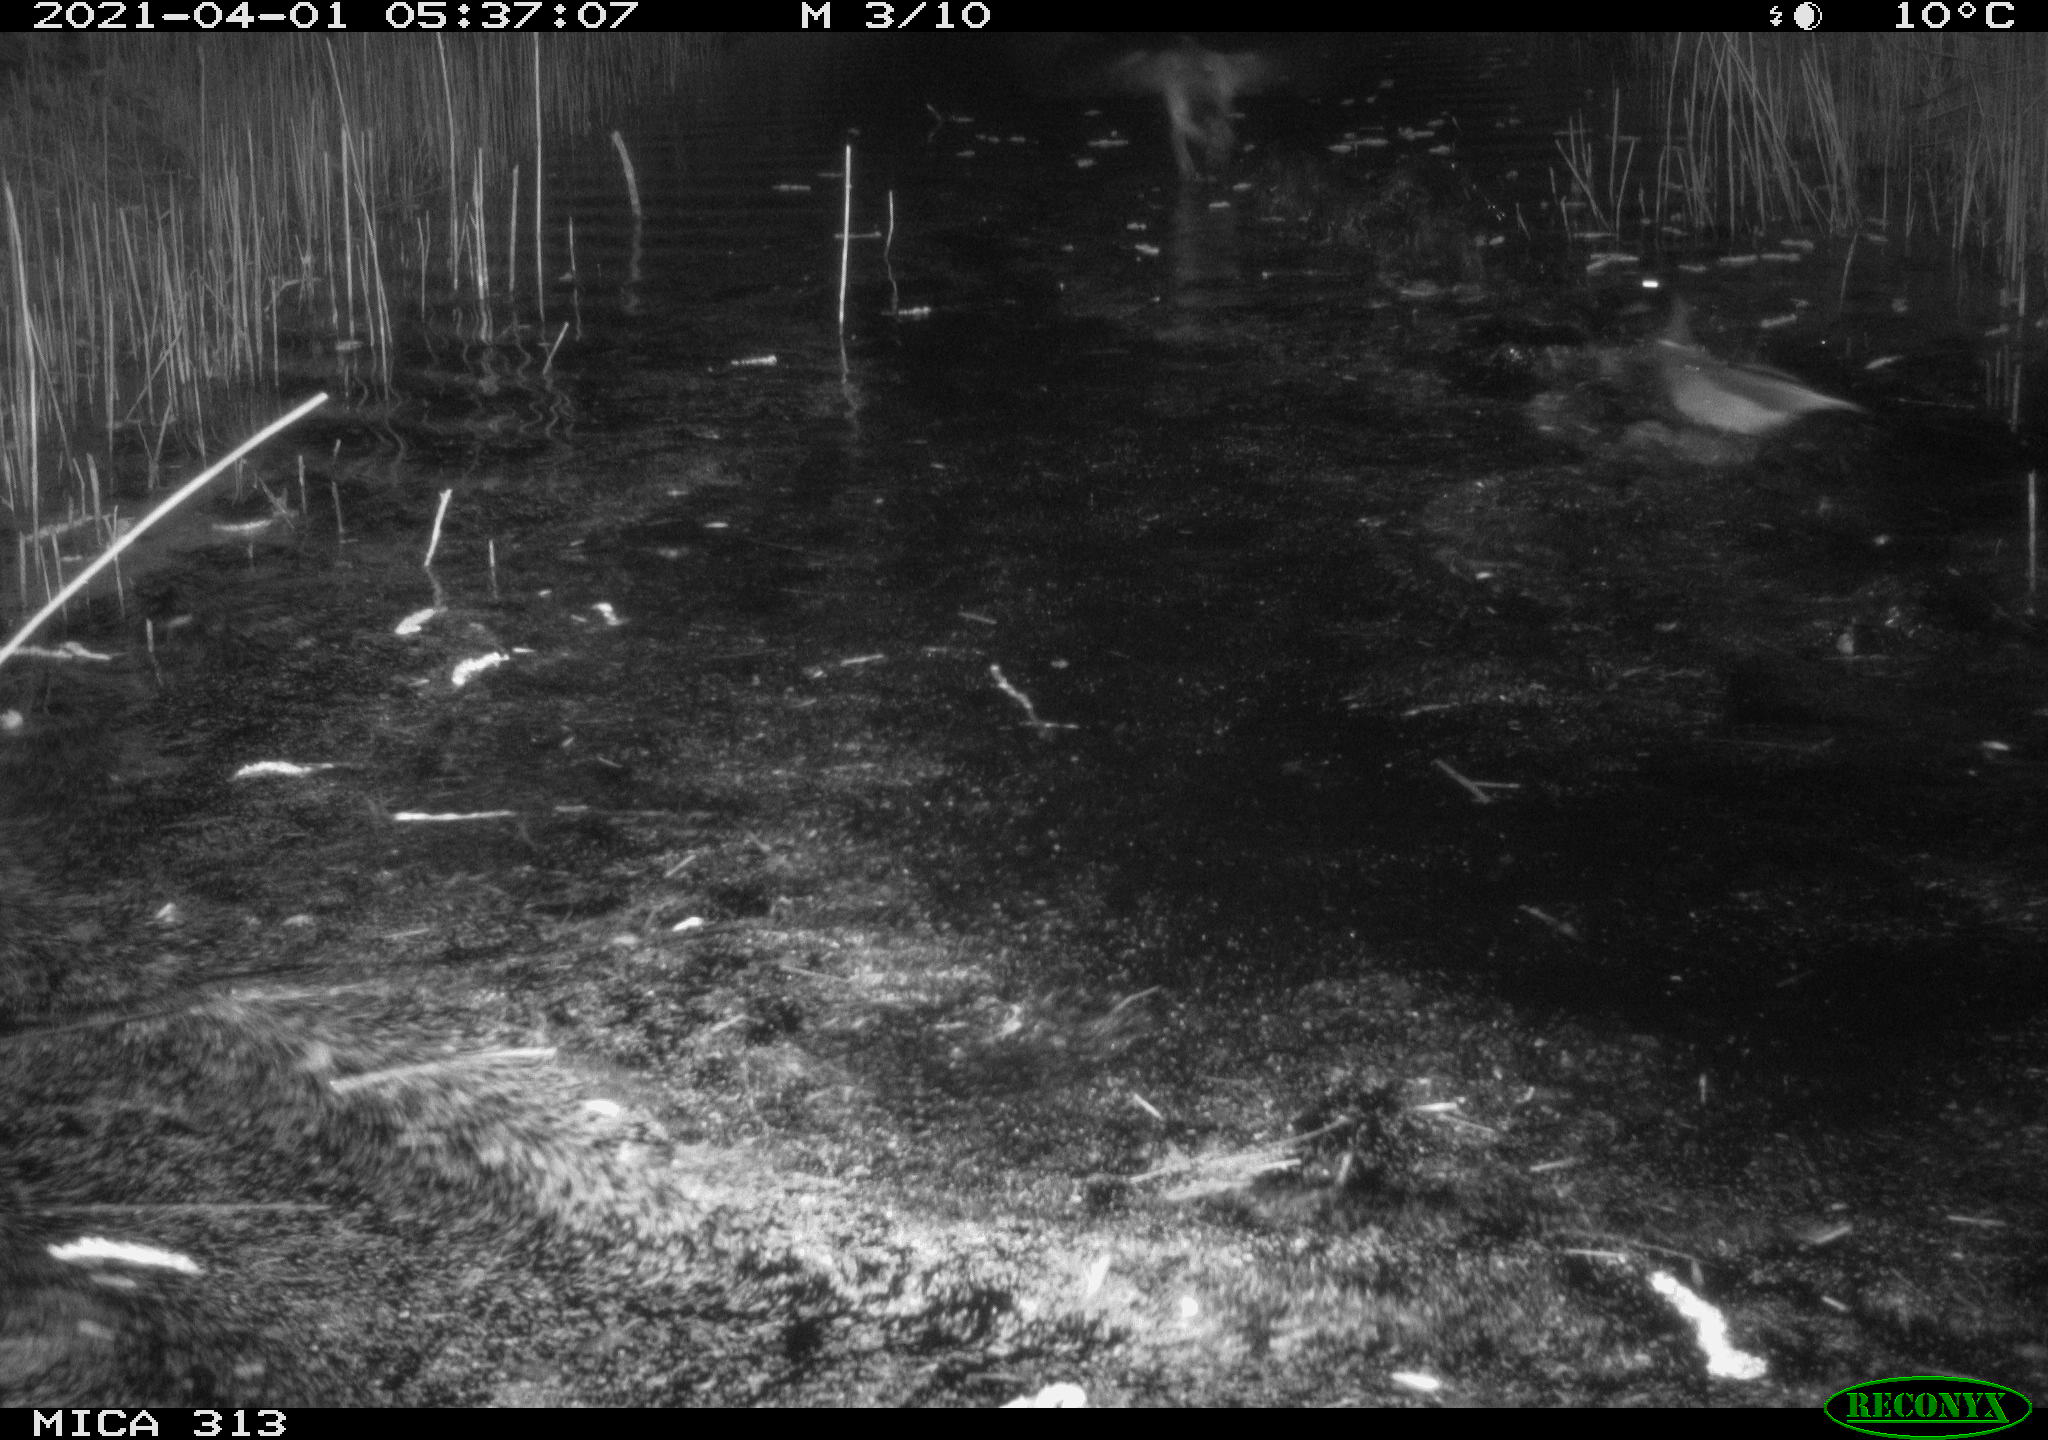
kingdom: Animalia
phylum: Chordata
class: Aves
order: Anseriformes
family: Anatidae
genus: Anas
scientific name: Anas platyrhynchos
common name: Mallard
